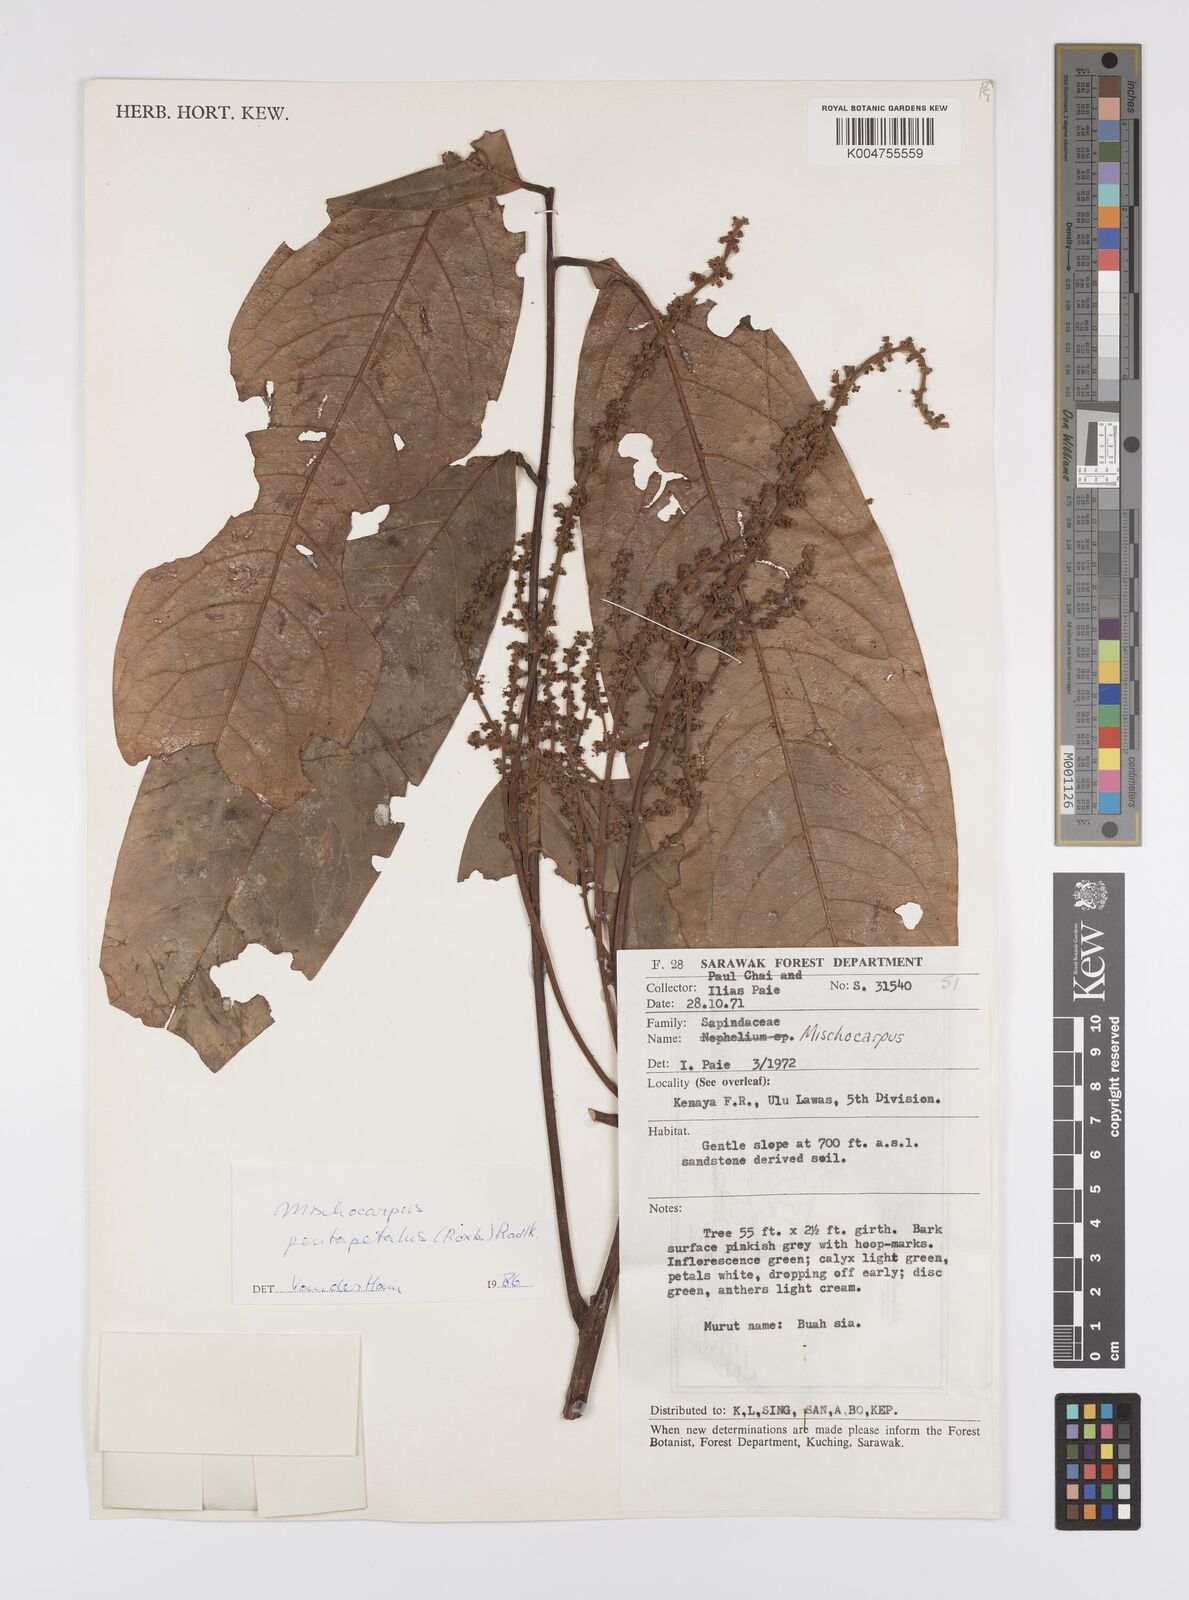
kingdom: Plantae
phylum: Tracheophyta
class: Magnoliopsida
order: Sapindales
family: Sapindaceae
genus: Mischocarpus
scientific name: Mischocarpus pentapetalus
